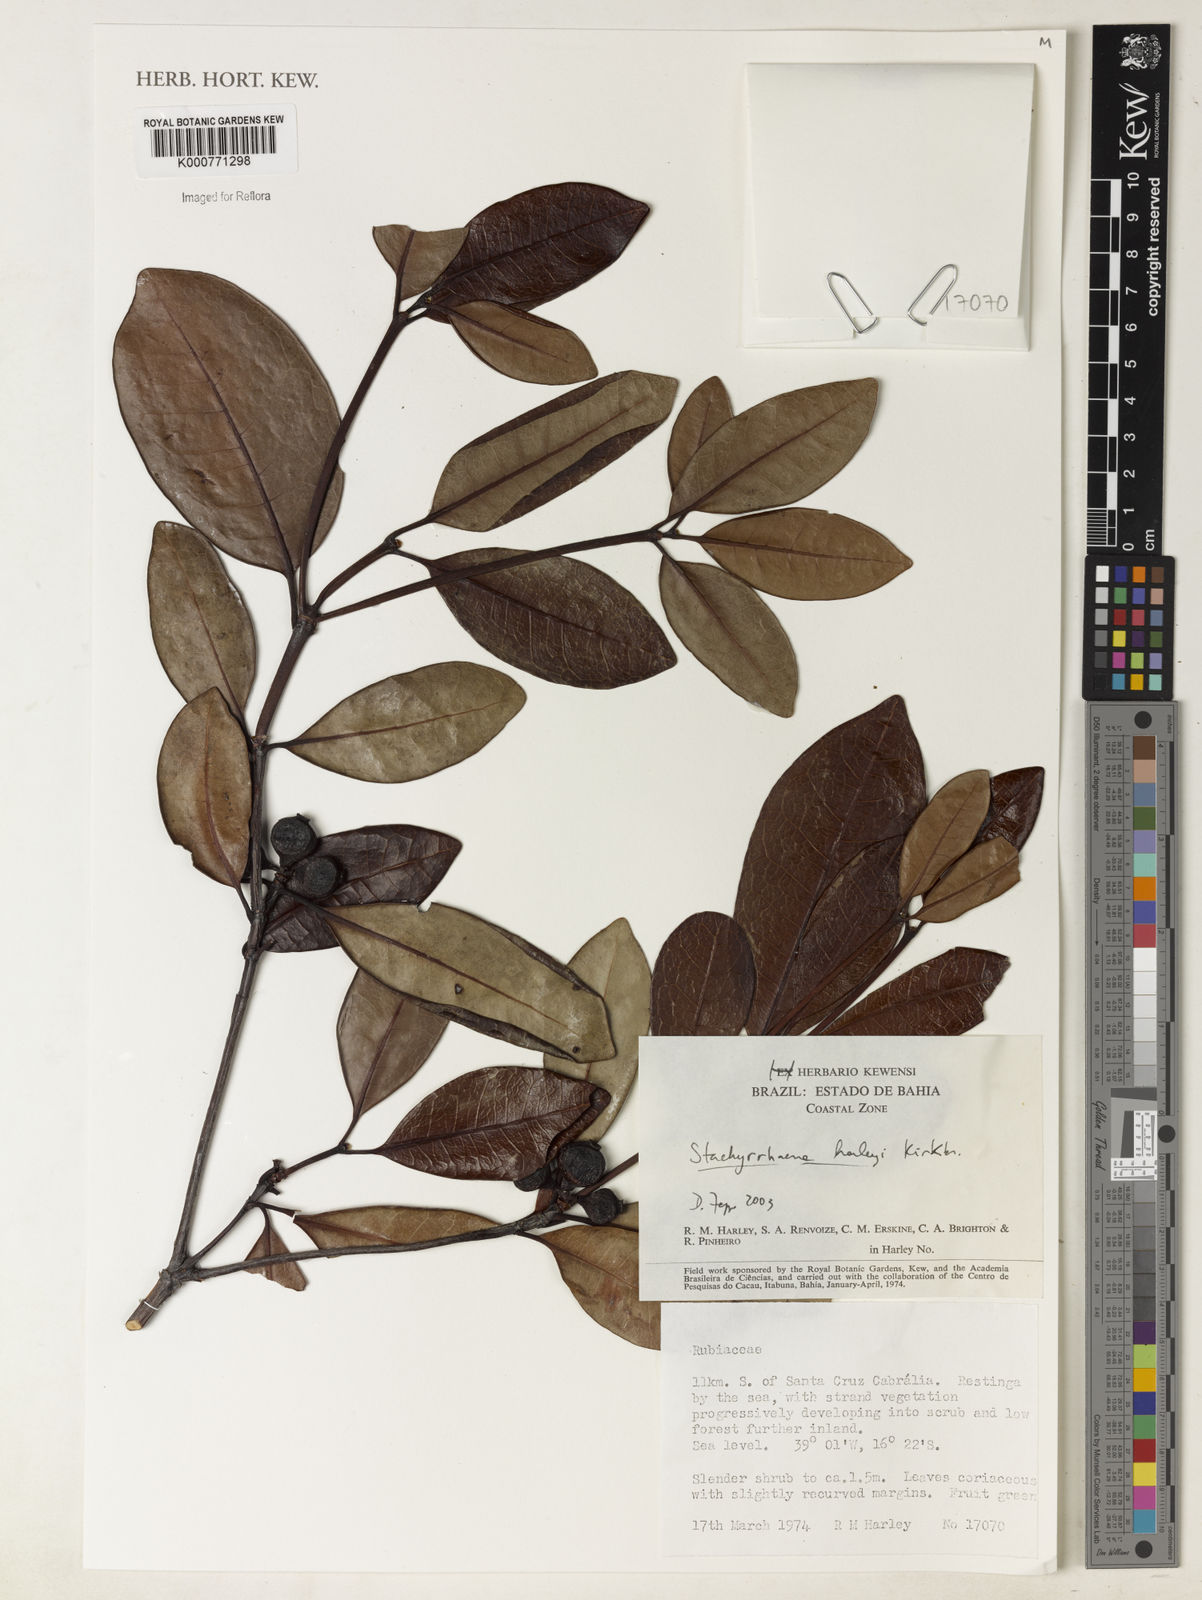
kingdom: Plantae
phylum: Tracheophyta
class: Magnoliopsida
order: Gentianales
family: Rubiaceae
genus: Stachyarrhena
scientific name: Stachyarrhena harleyi
